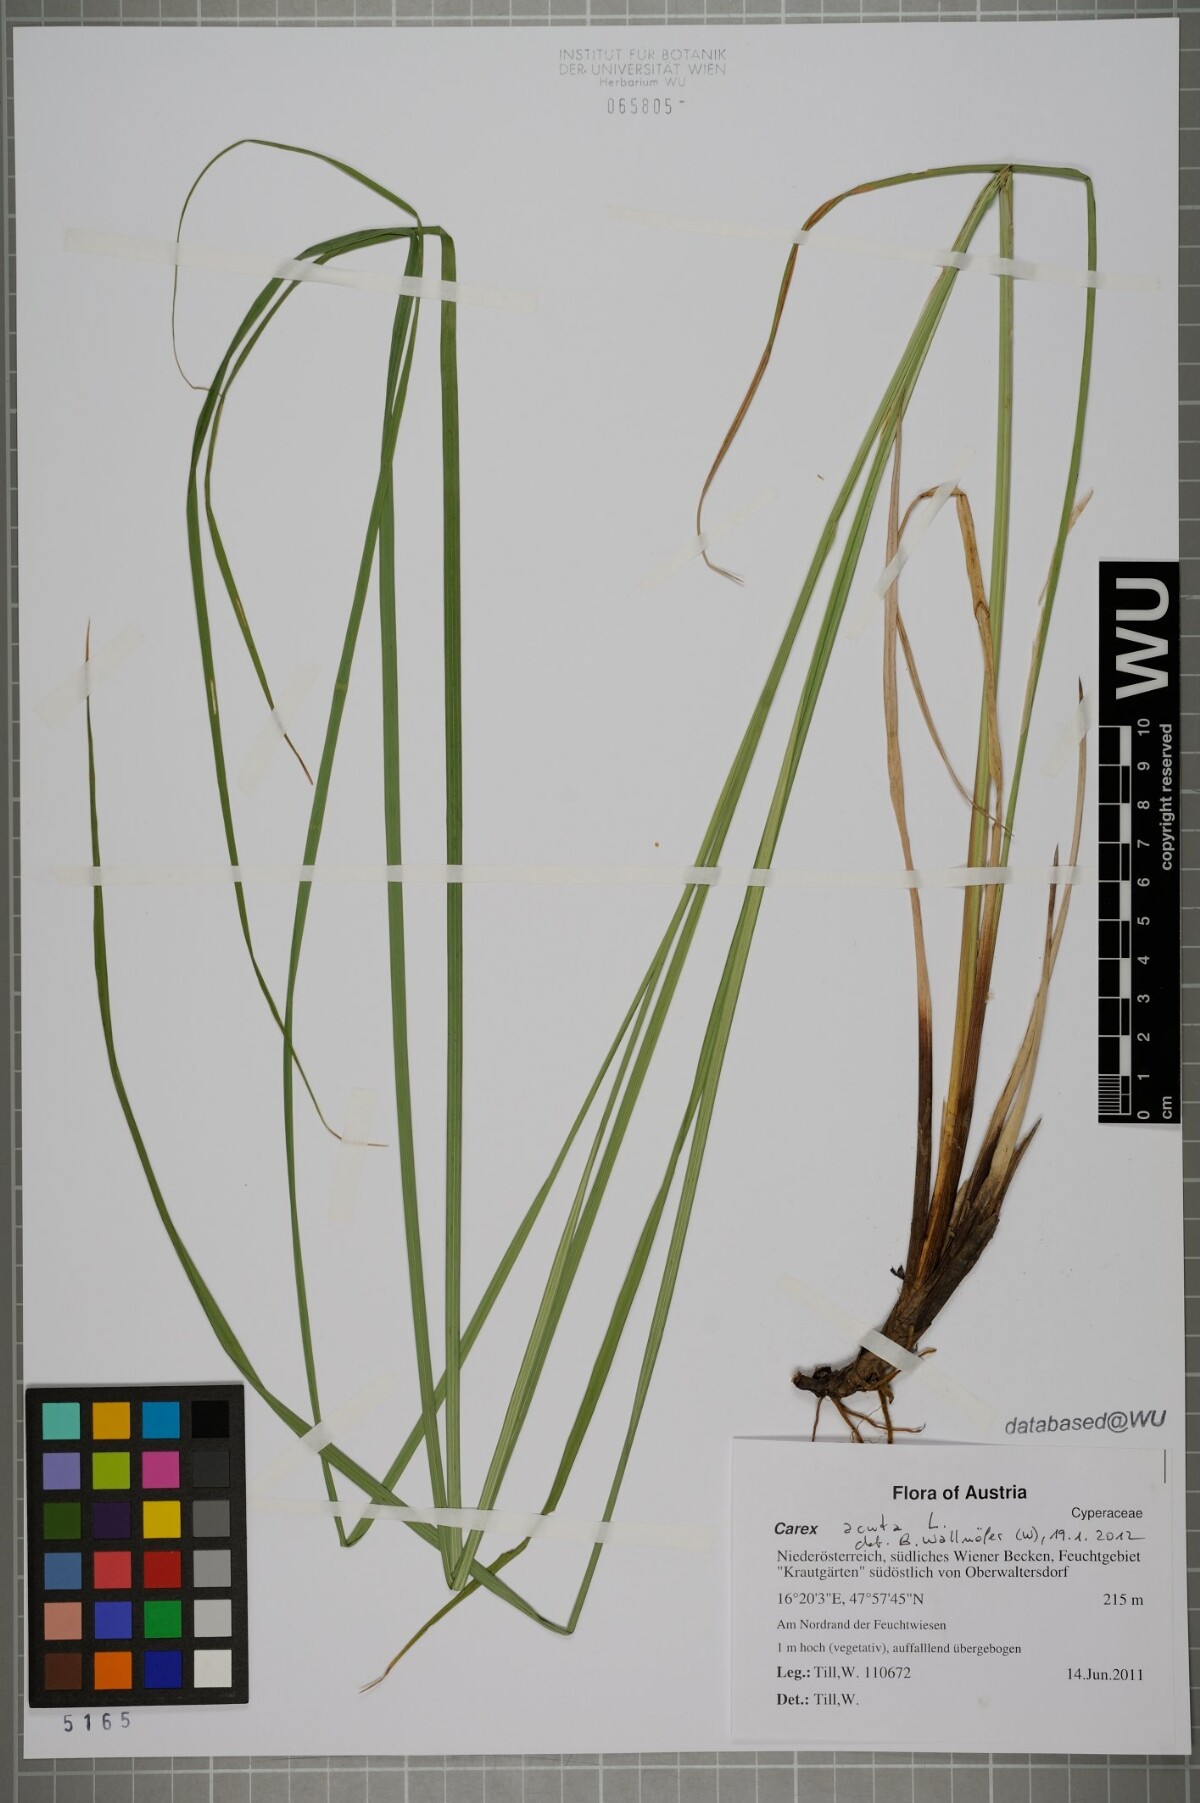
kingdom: Plantae
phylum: Tracheophyta
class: Liliopsida
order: Poales
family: Cyperaceae
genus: Carex
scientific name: Carex acuta
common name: Slender tufted-sedge
